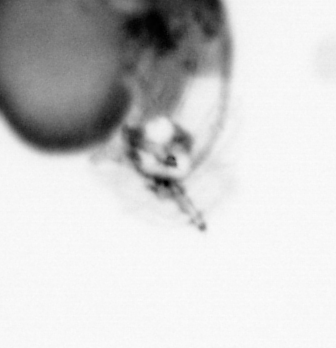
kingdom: Animalia
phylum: Arthropoda
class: Copepoda
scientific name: Copepoda
